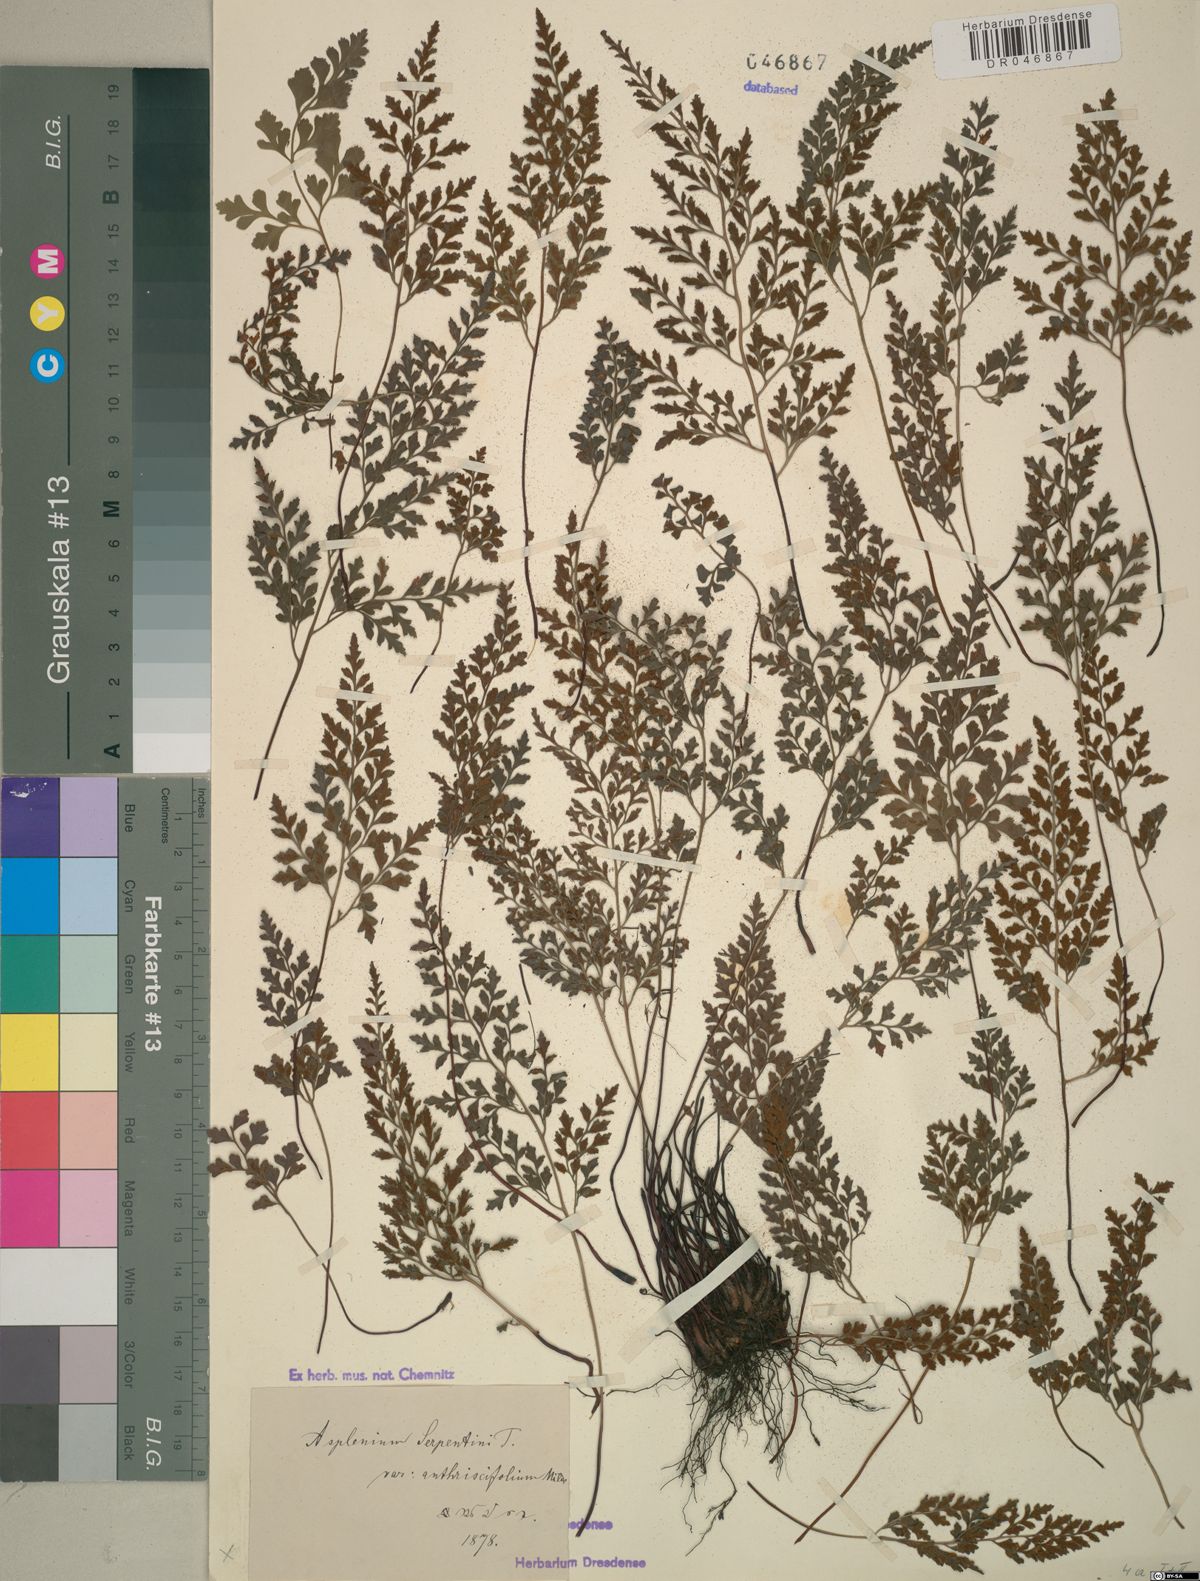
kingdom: Plantae
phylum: Tracheophyta
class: Polypodiopsida
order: Polypodiales
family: Aspleniaceae
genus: Asplenium
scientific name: Asplenium cuneifolium
